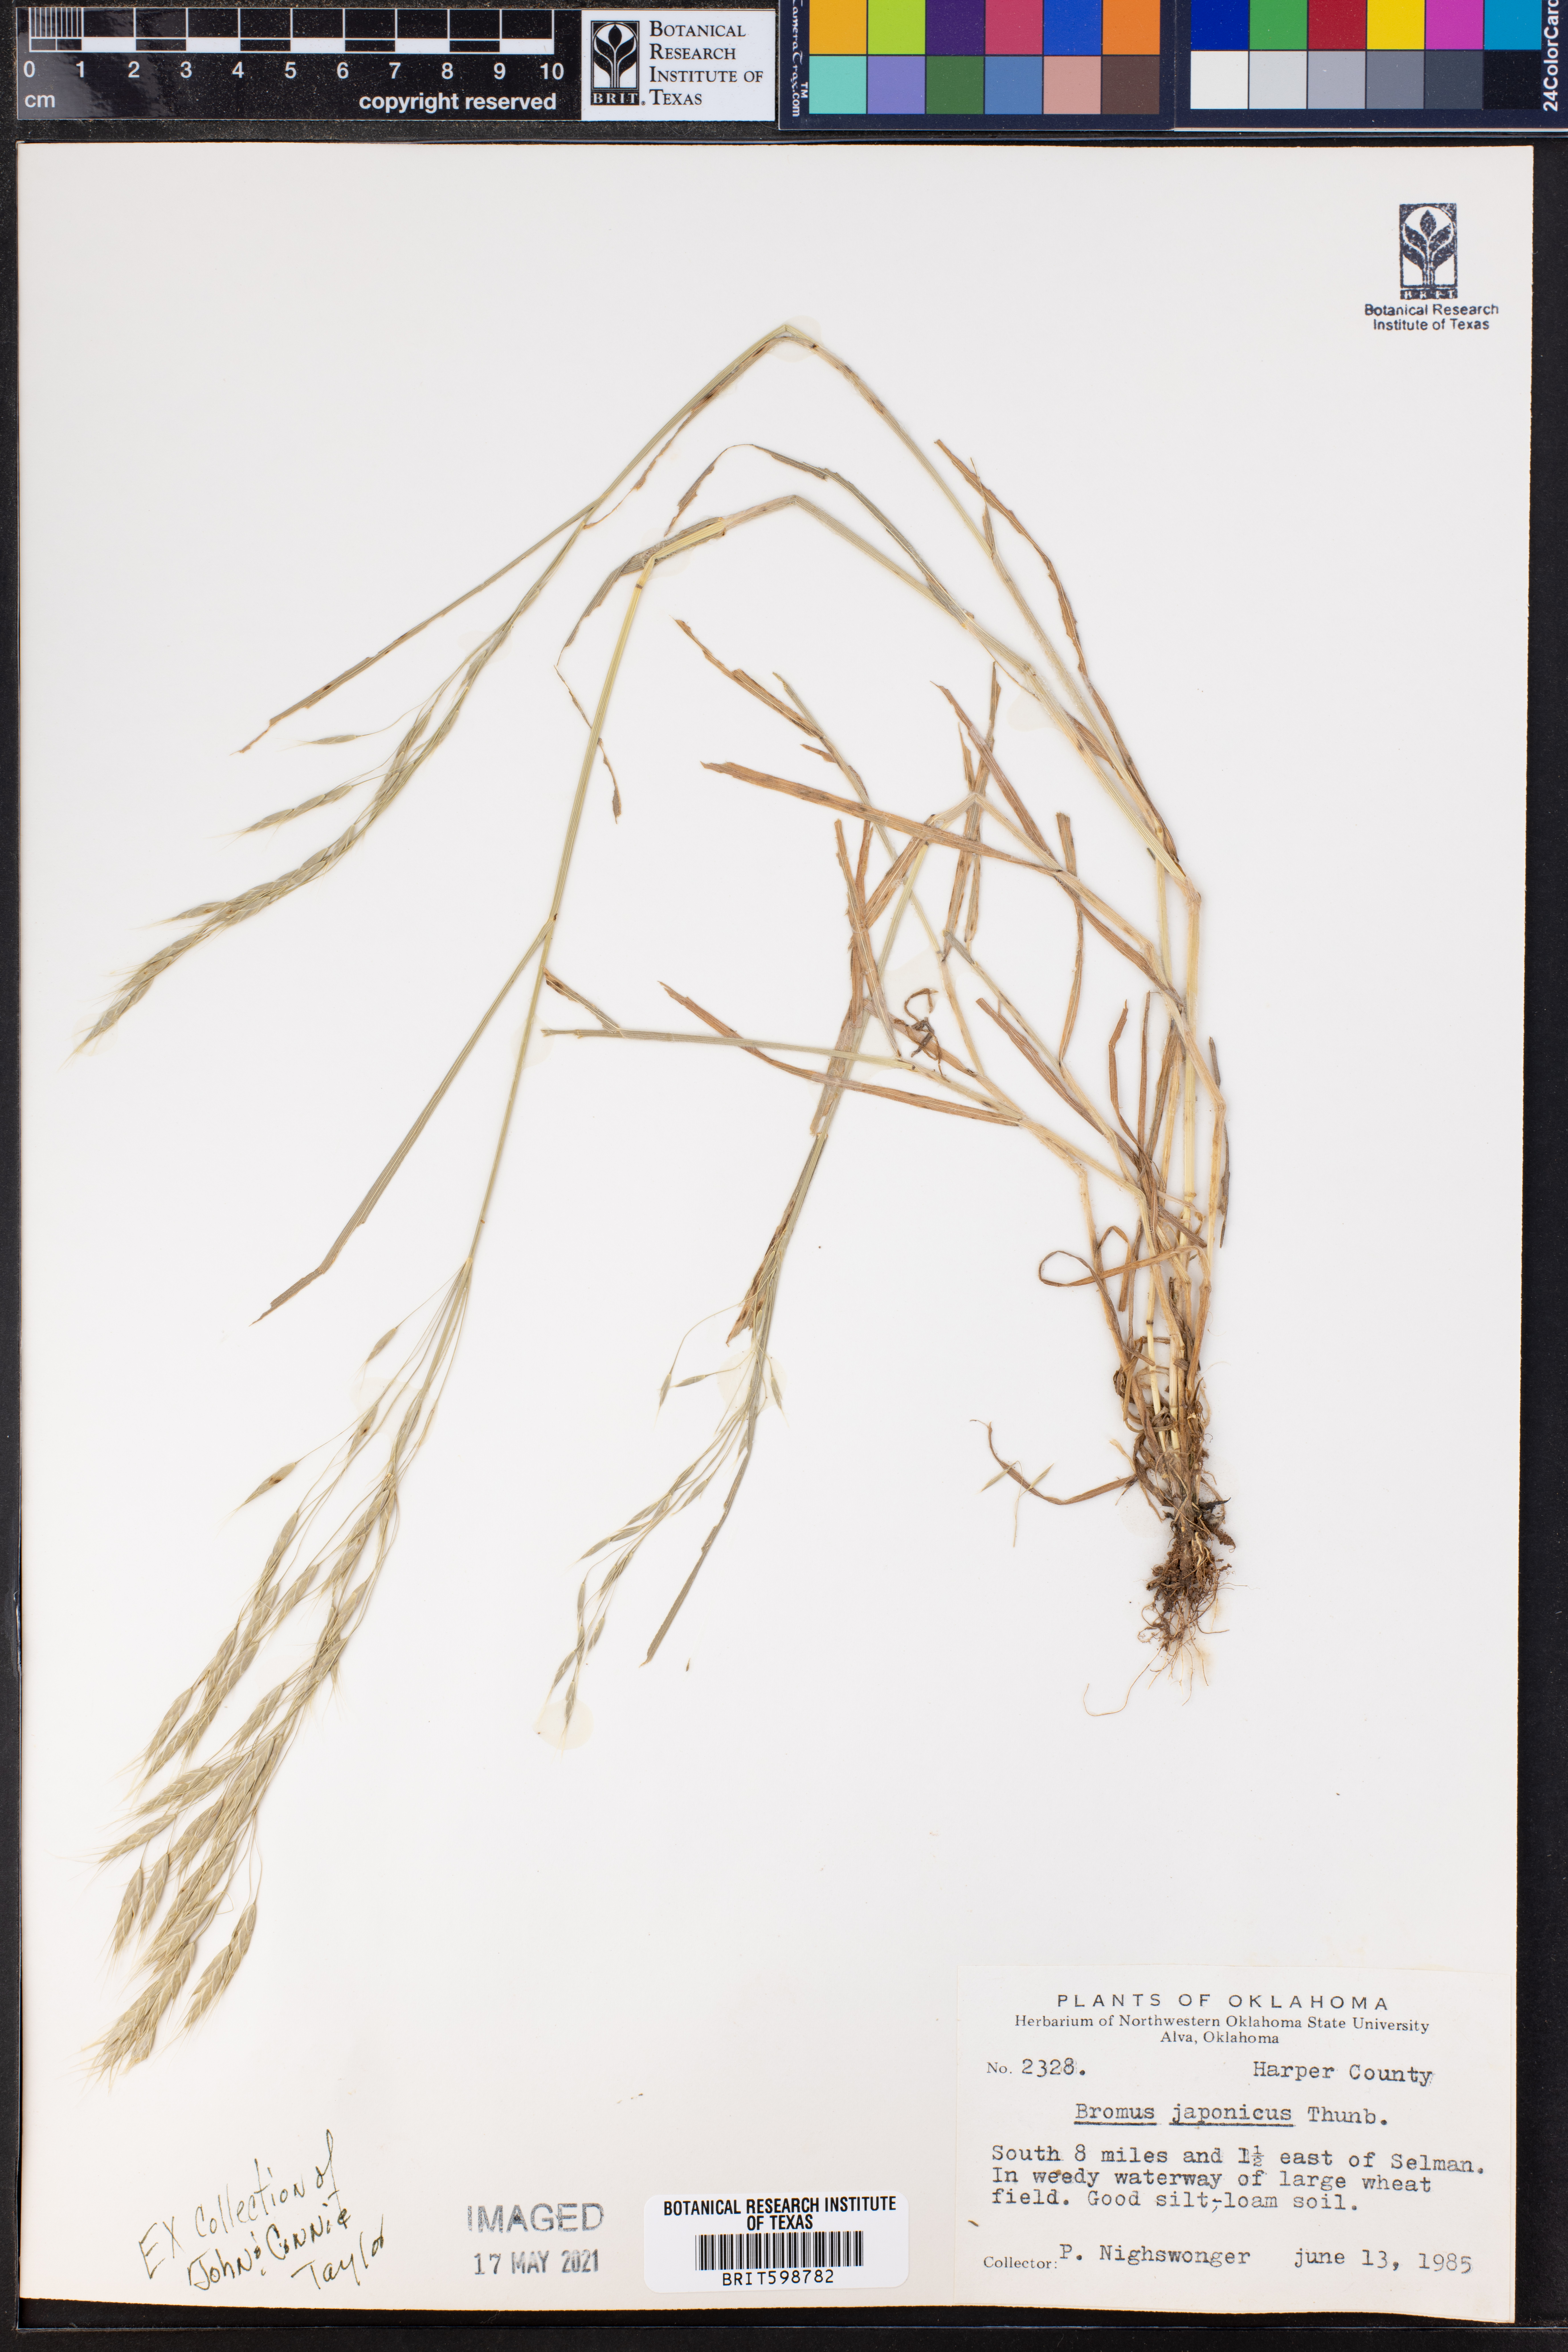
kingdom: Plantae
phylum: Tracheophyta
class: Liliopsida
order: Poales
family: Poaceae
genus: Bromus
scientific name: Bromus japonicus
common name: Japanese brome
